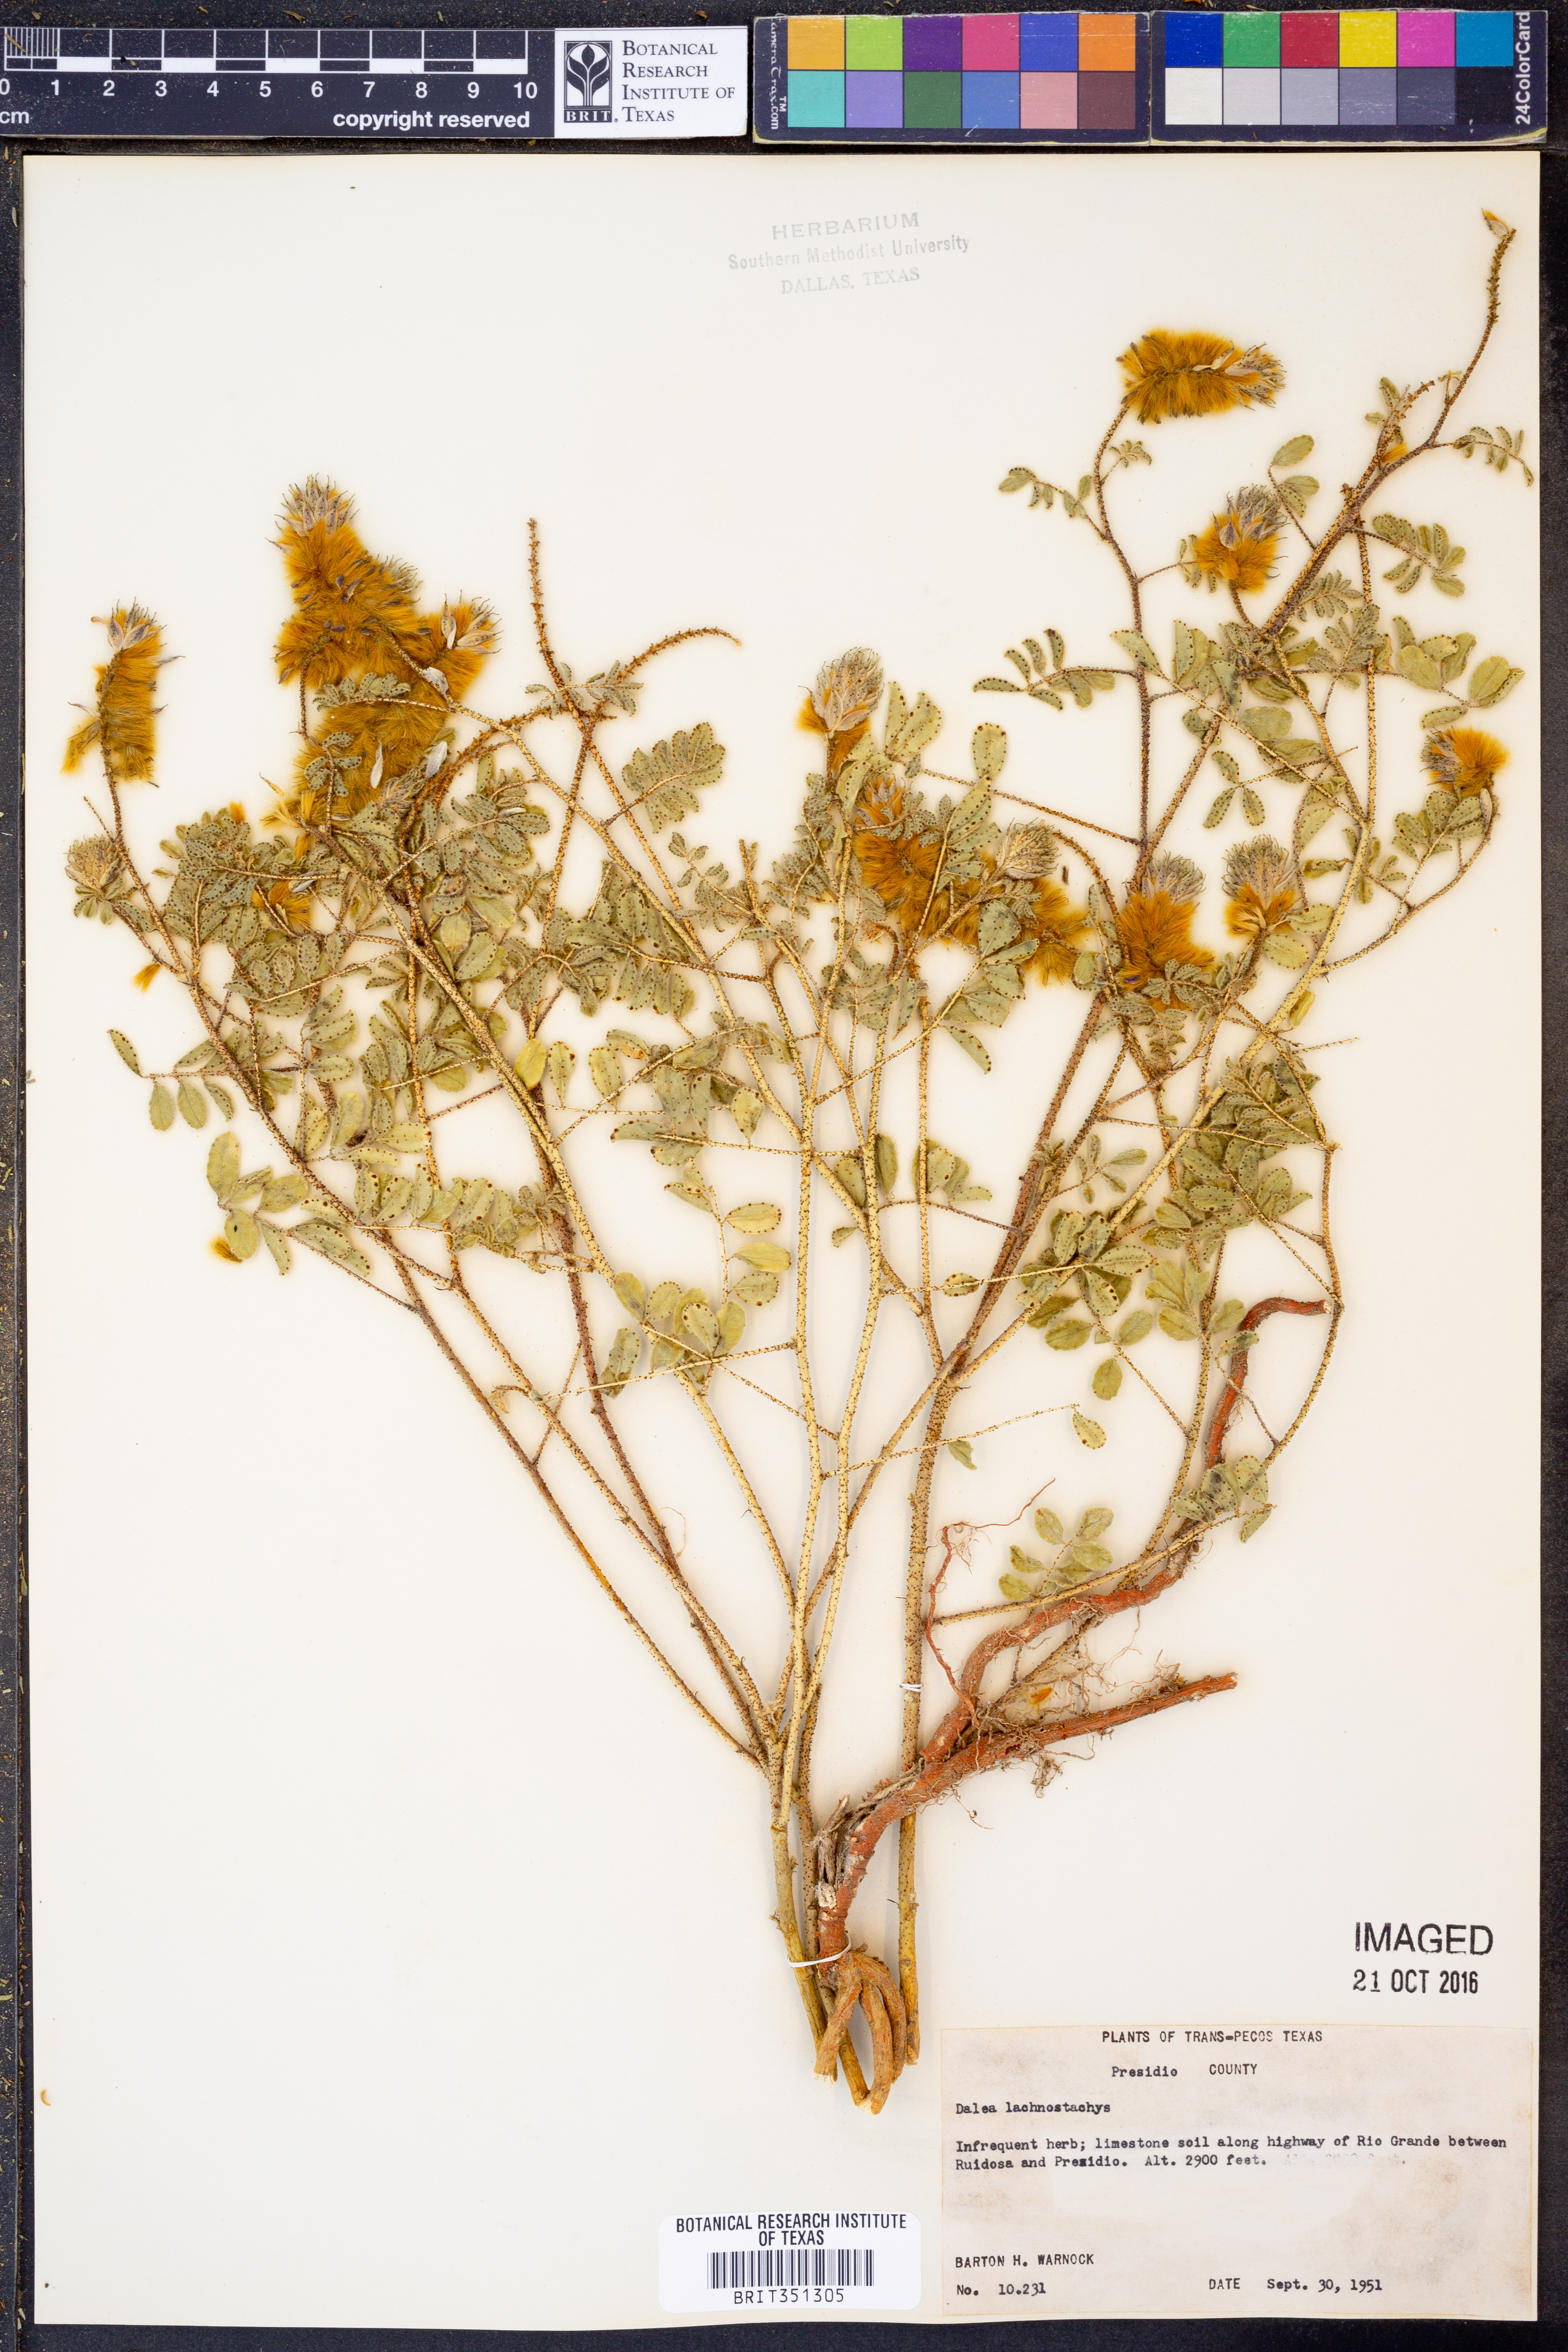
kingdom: Plantae
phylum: Tracheophyta
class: Magnoliopsida
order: Fabales
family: Fabaceae
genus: Dalea
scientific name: Dalea lachnostachys
